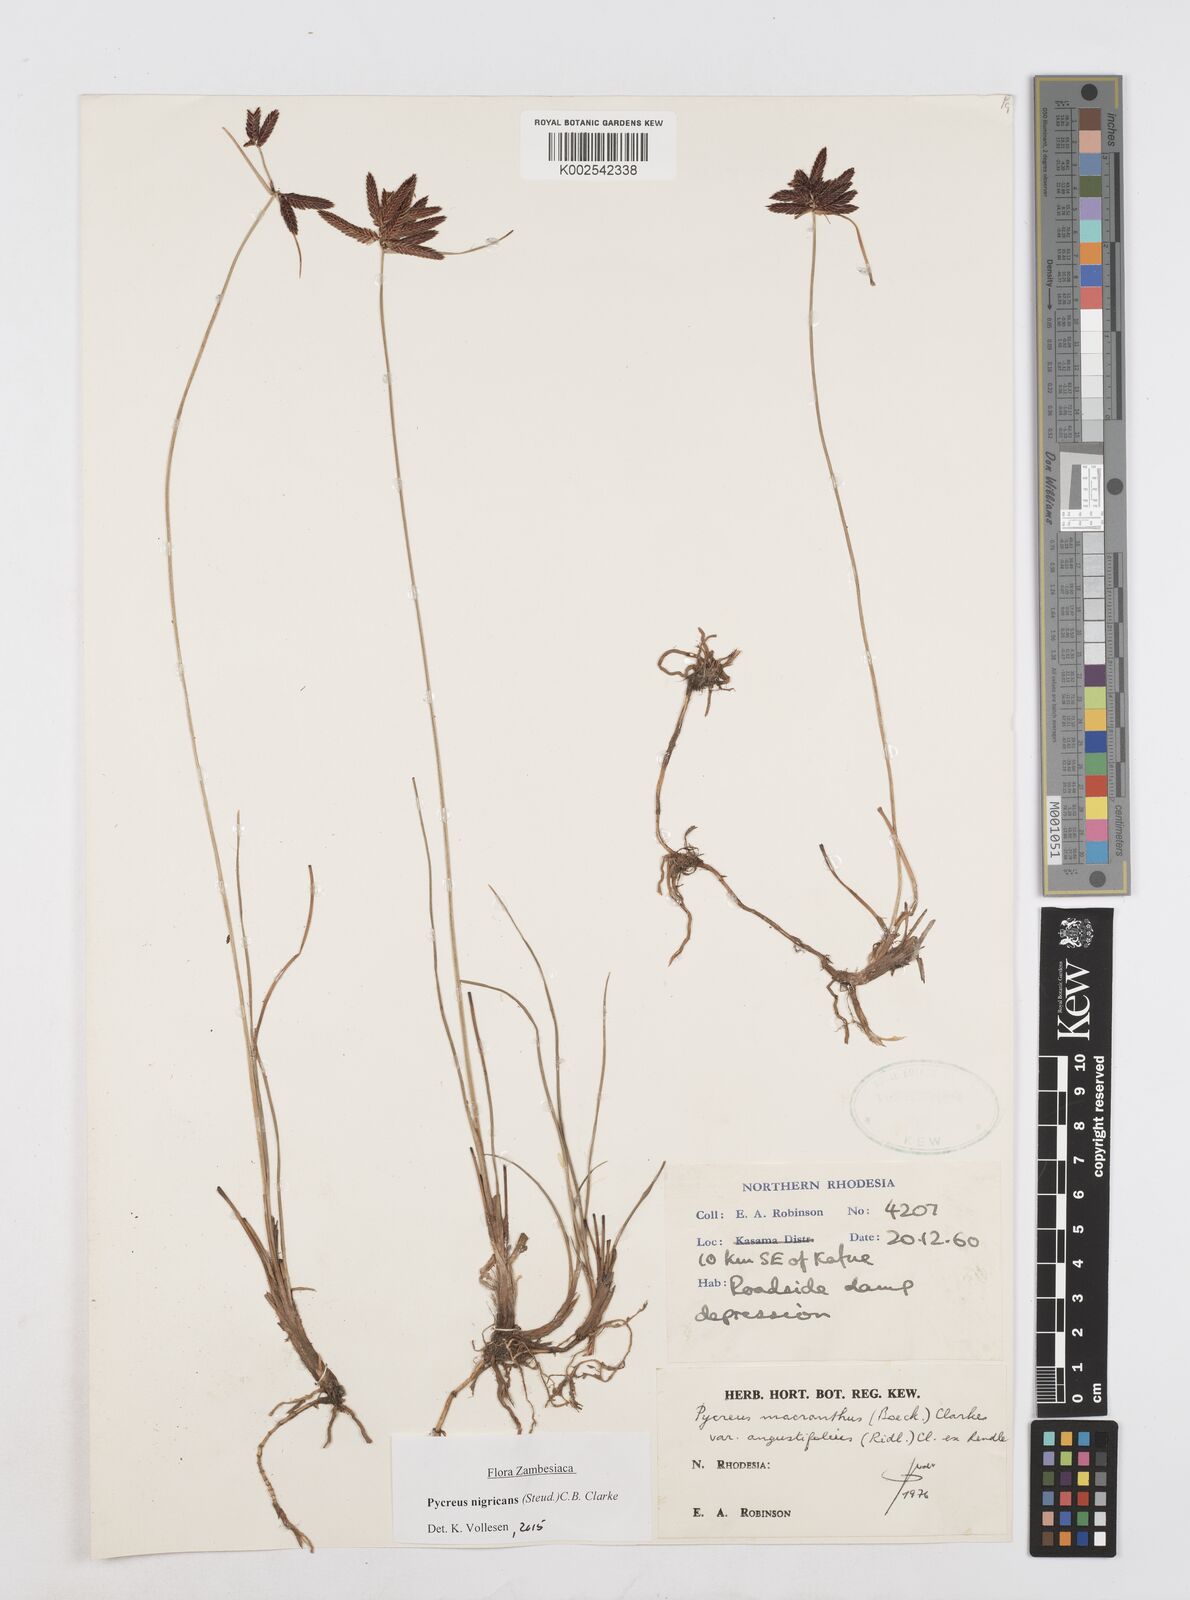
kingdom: Plantae
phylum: Tracheophyta
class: Liliopsida
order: Poales
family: Cyperaceae
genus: Cyperus
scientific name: Cyperus nigricans
